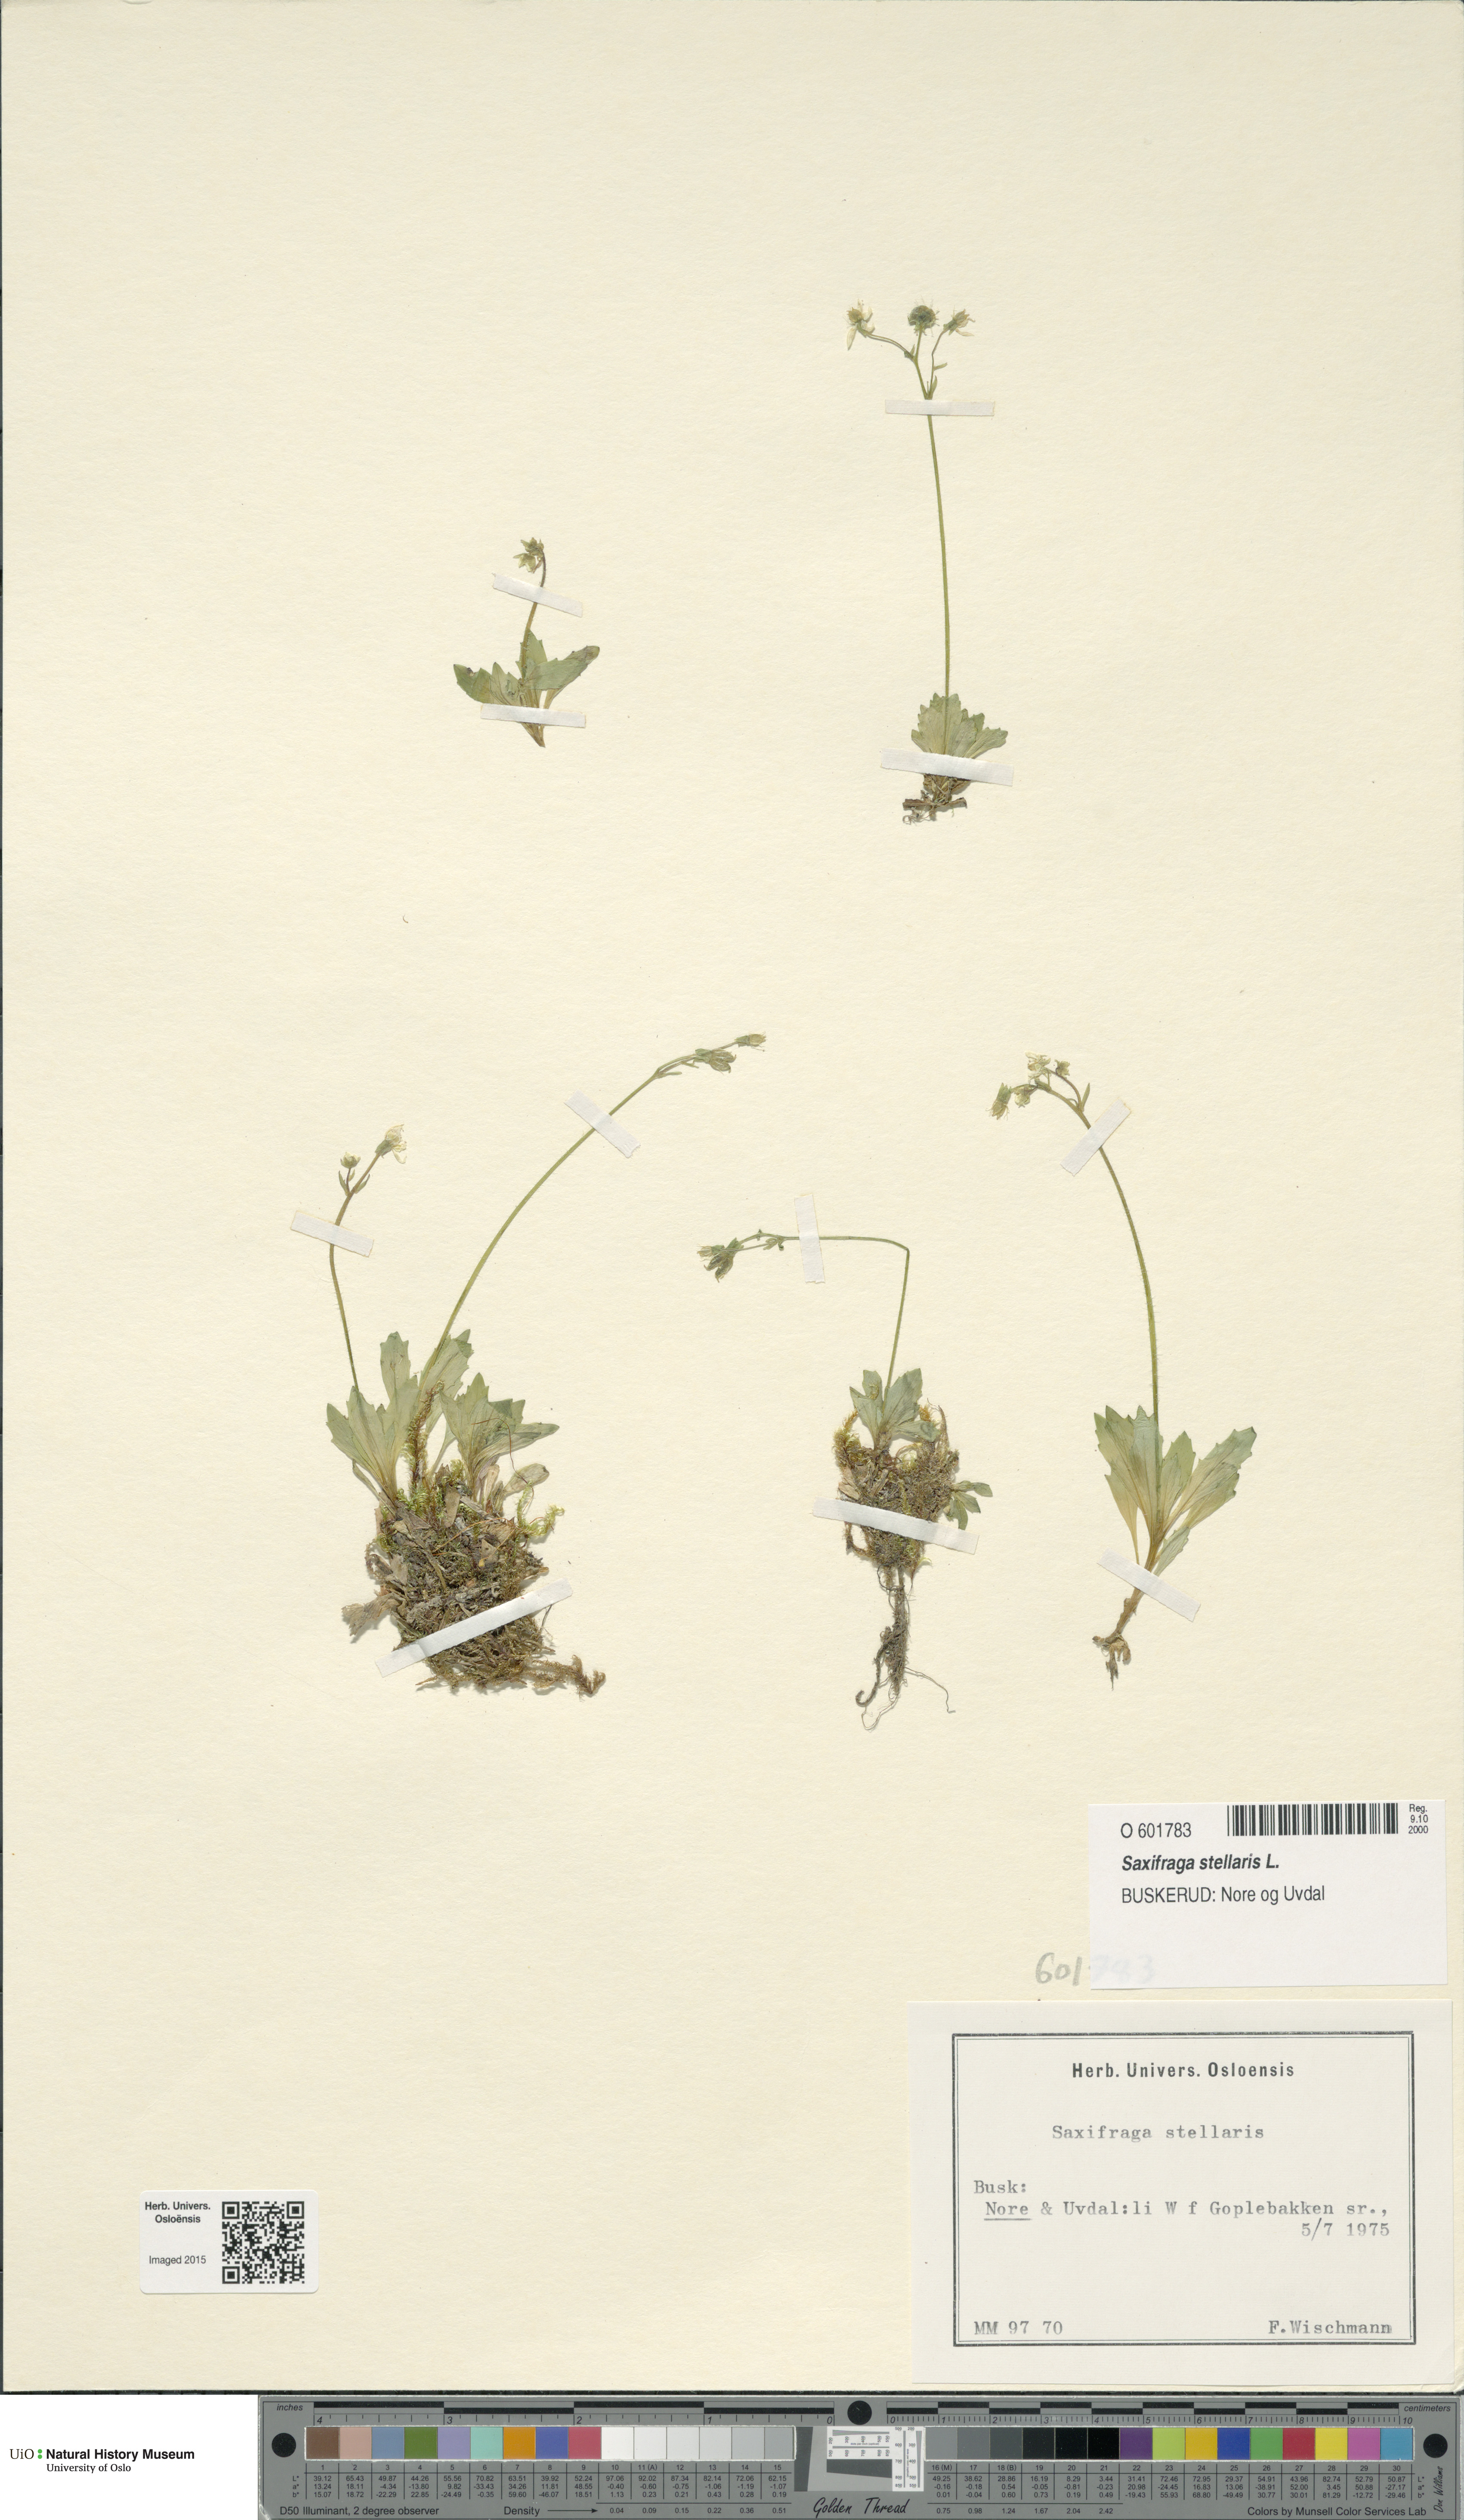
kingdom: Plantae
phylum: Tracheophyta
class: Magnoliopsida
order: Saxifragales
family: Saxifragaceae
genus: Micranthes
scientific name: Micranthes stellaris
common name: Starry saxifrage
